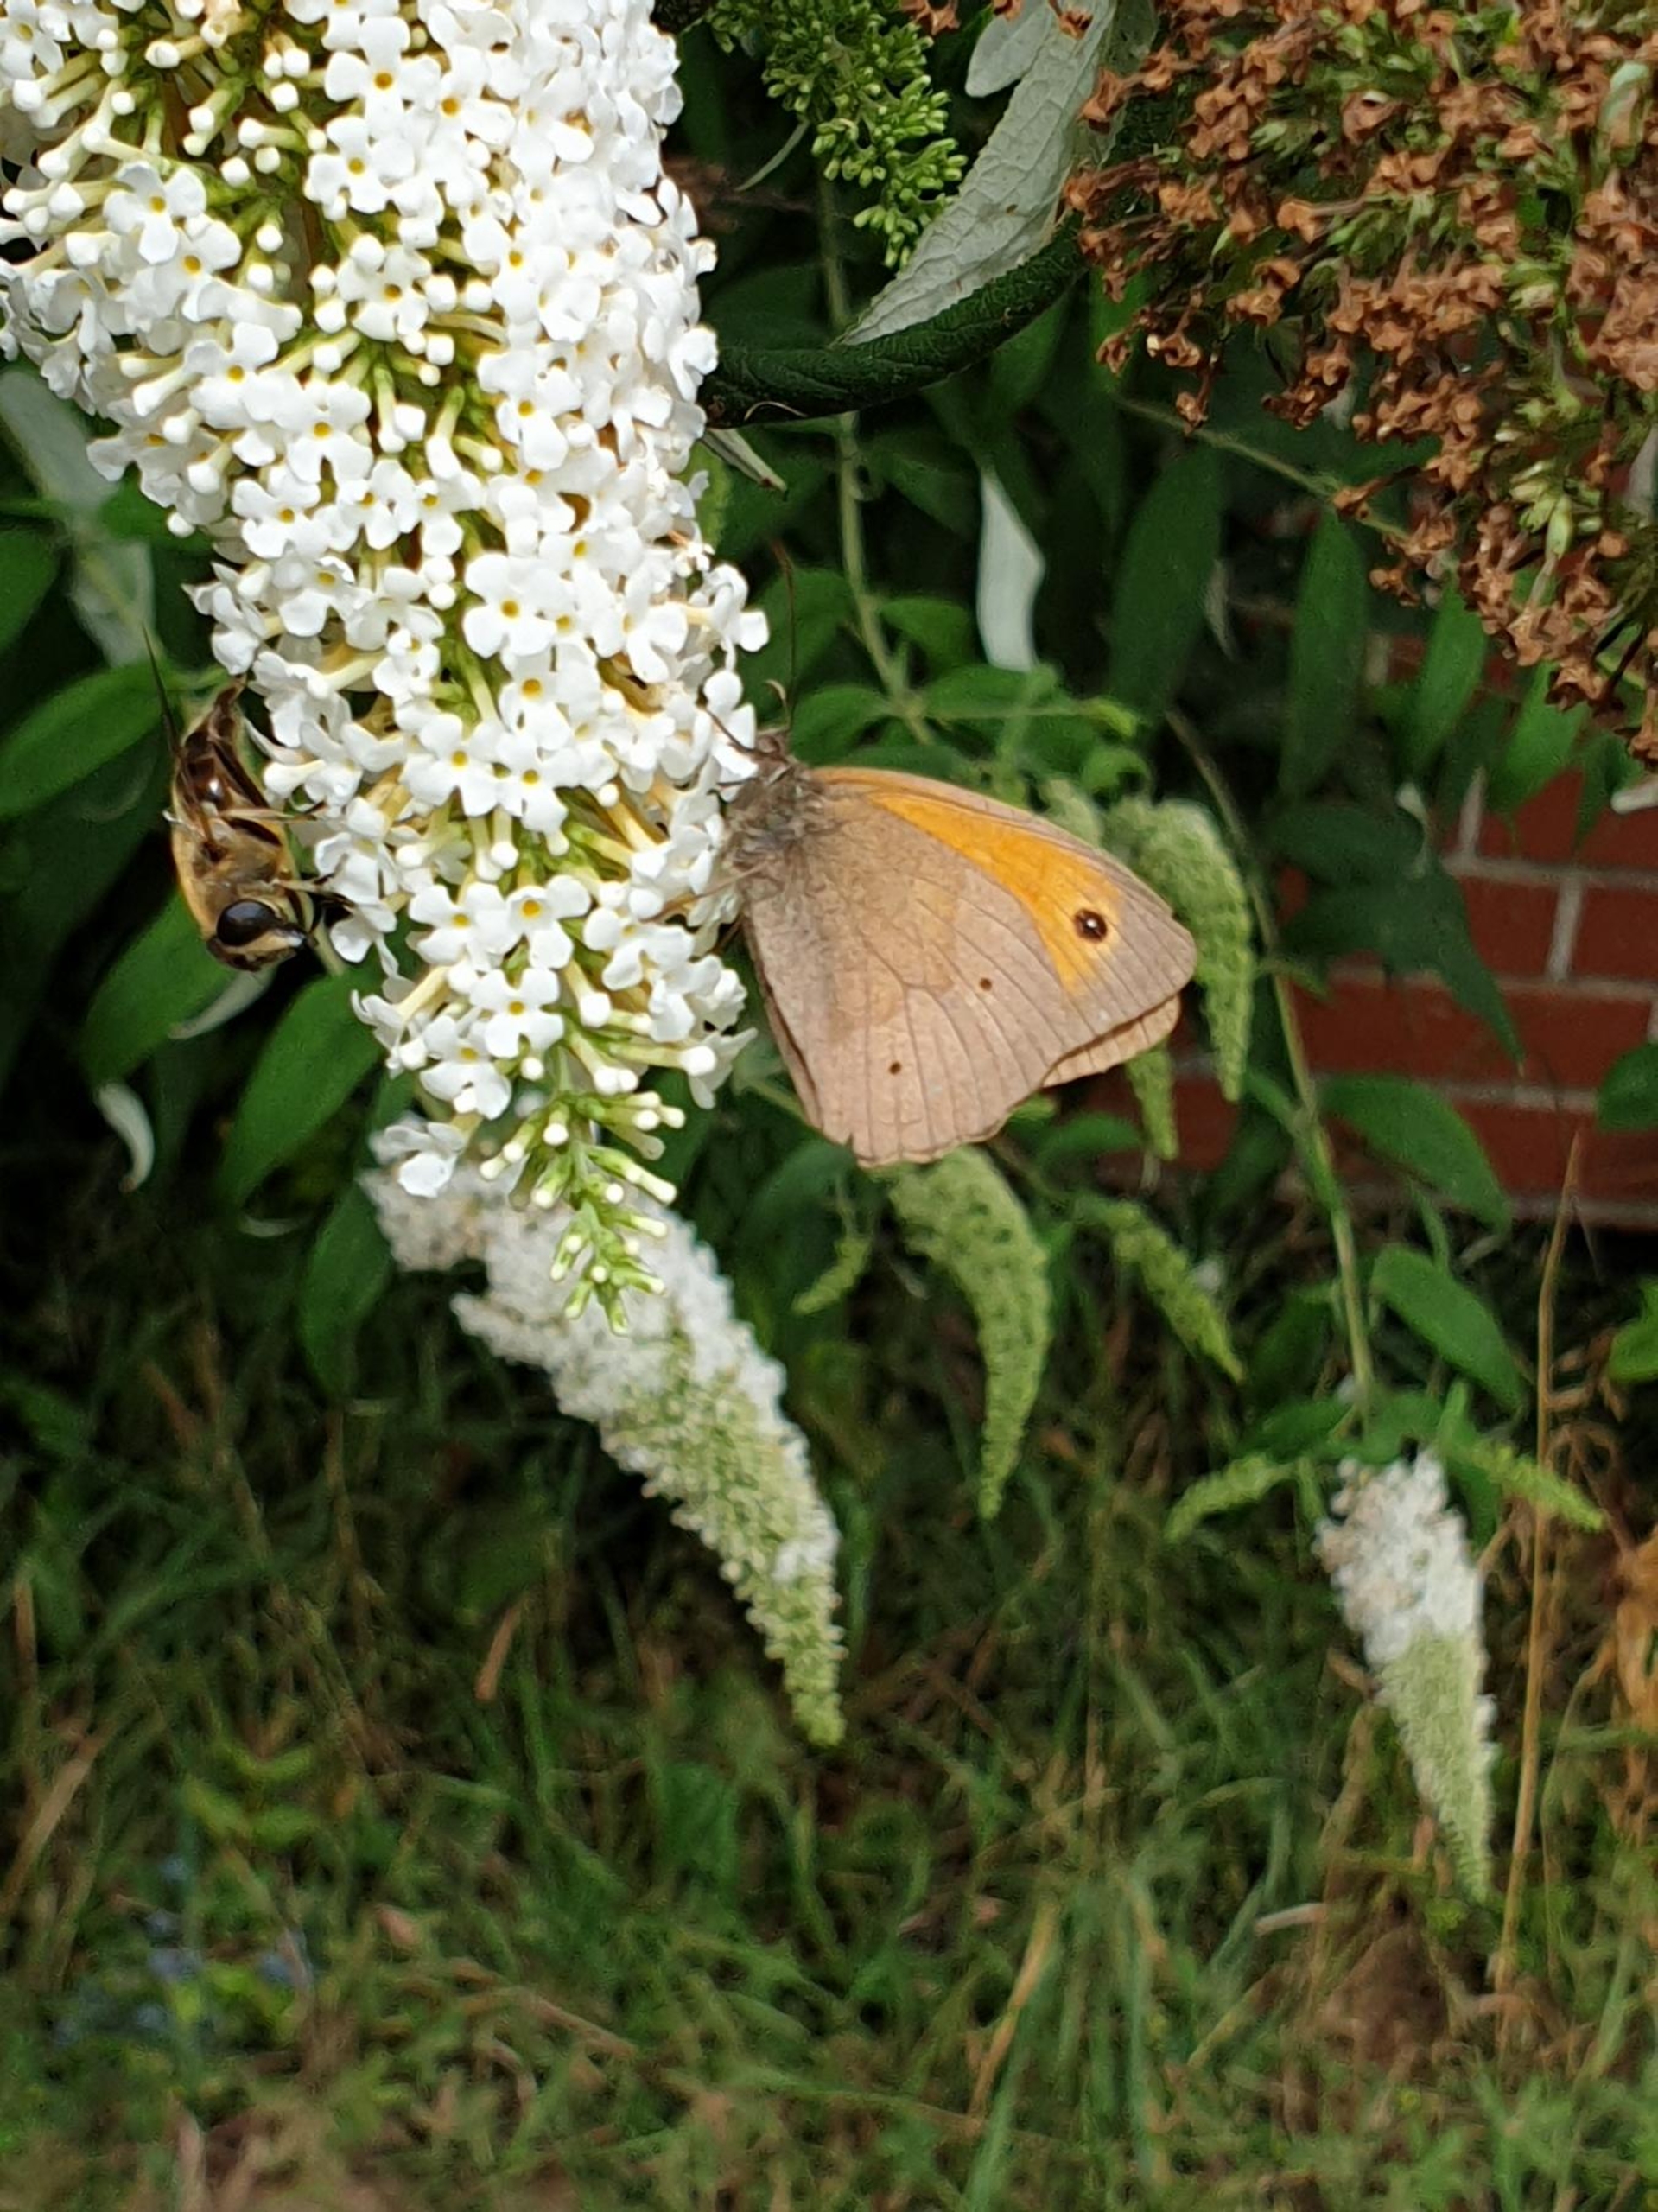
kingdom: Animalia
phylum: Arthropoda
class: Insecta
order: Lepidoptera
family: Nymphalidae
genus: Maniola
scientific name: Maniola jurtina
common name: Græsrandøje
